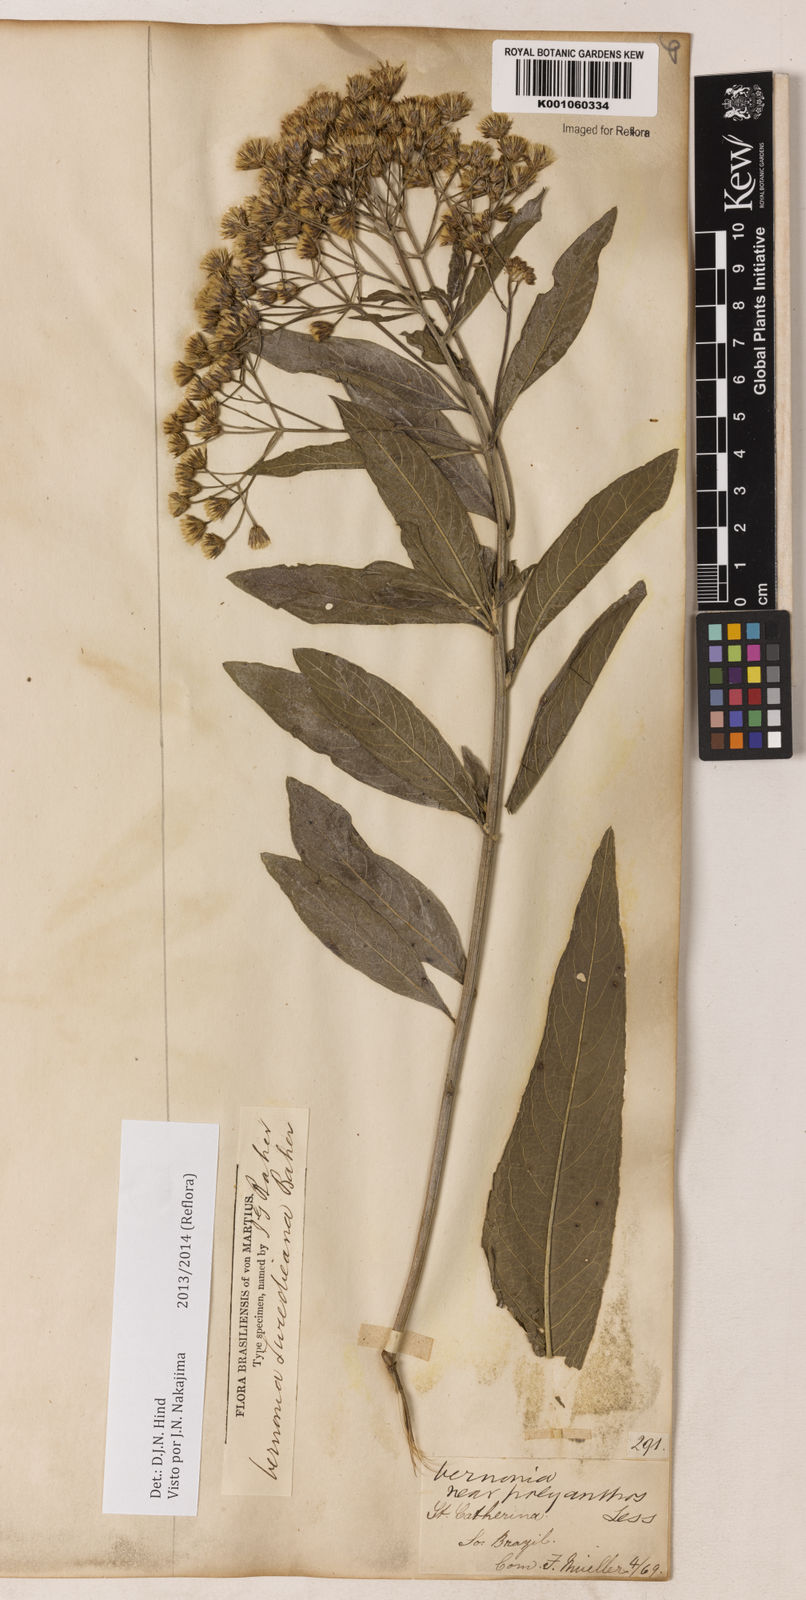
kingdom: Plantae
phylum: Tracheophyta
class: Magnoliopsida
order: Asterales
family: Asteraceae
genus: Vernonanthura
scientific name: Vernonanthura tweedieana
